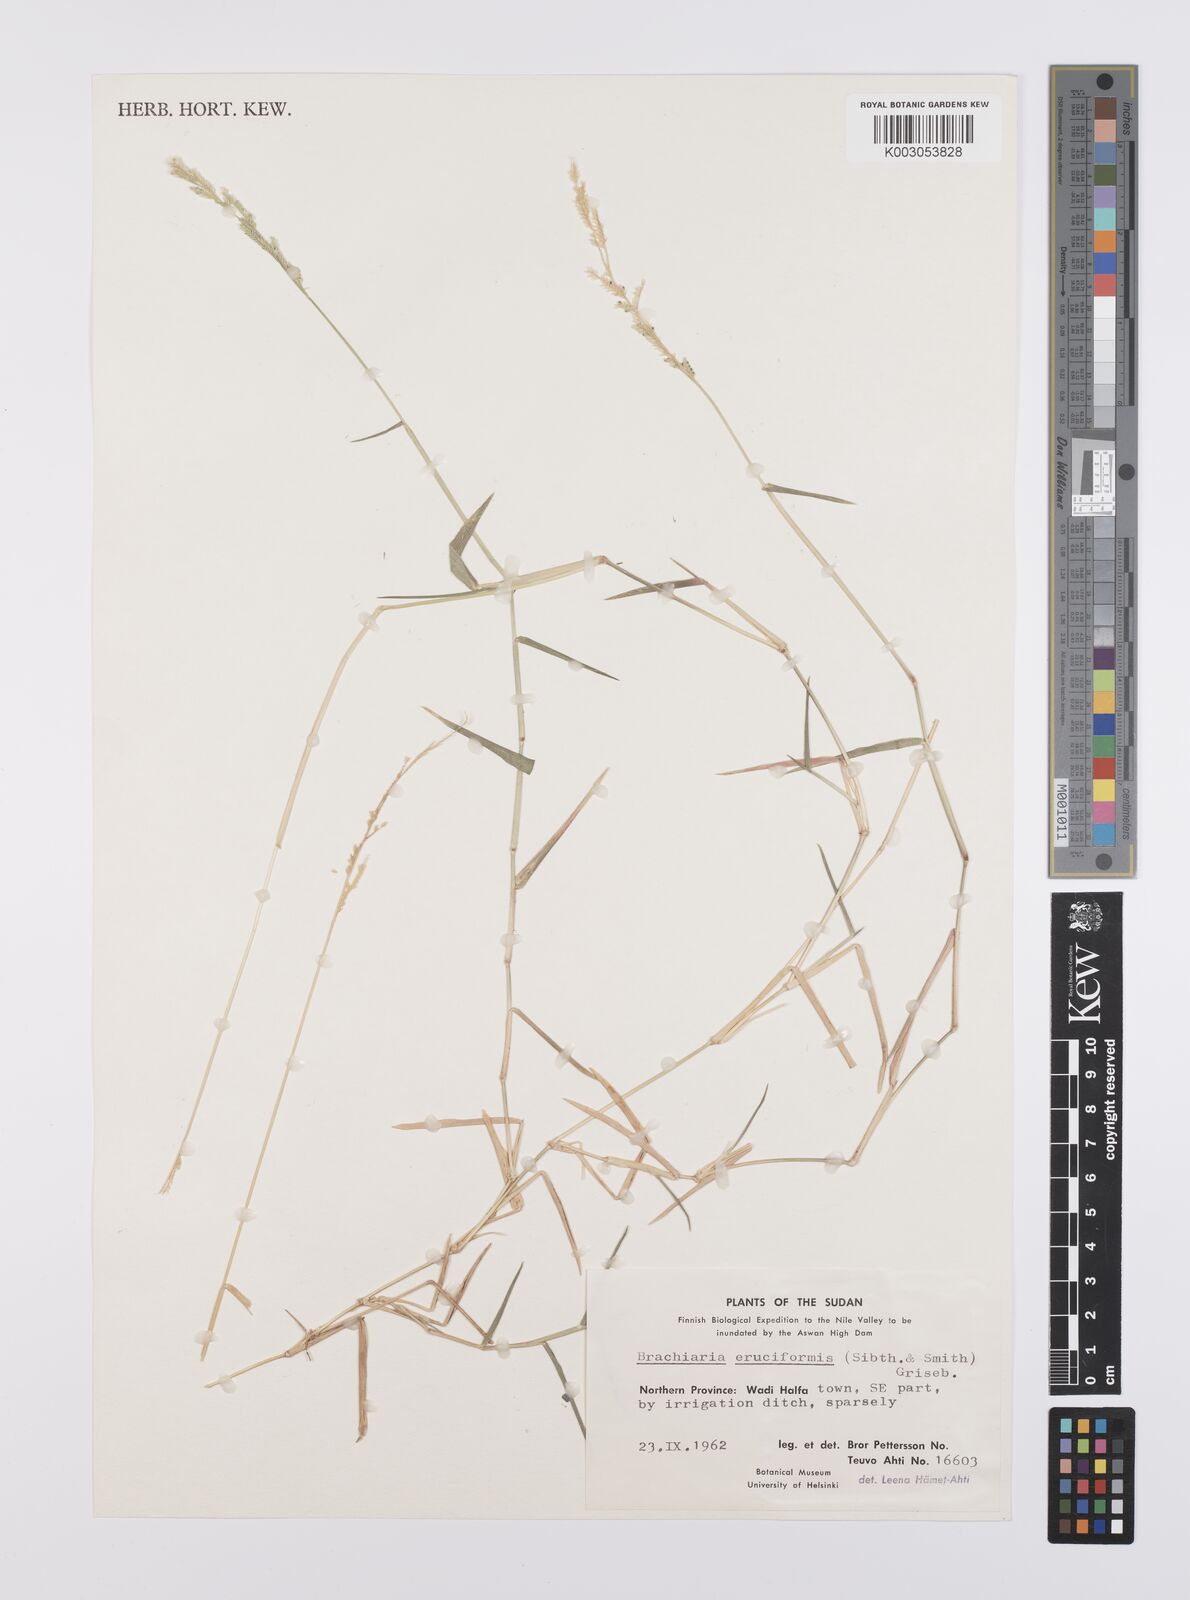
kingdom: Plantae
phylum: Tracheophyta
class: Liliopsida
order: Poales
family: Poaceae
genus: Moorochloa
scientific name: Moorochloa eruciformis
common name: Sweet signalgrass
